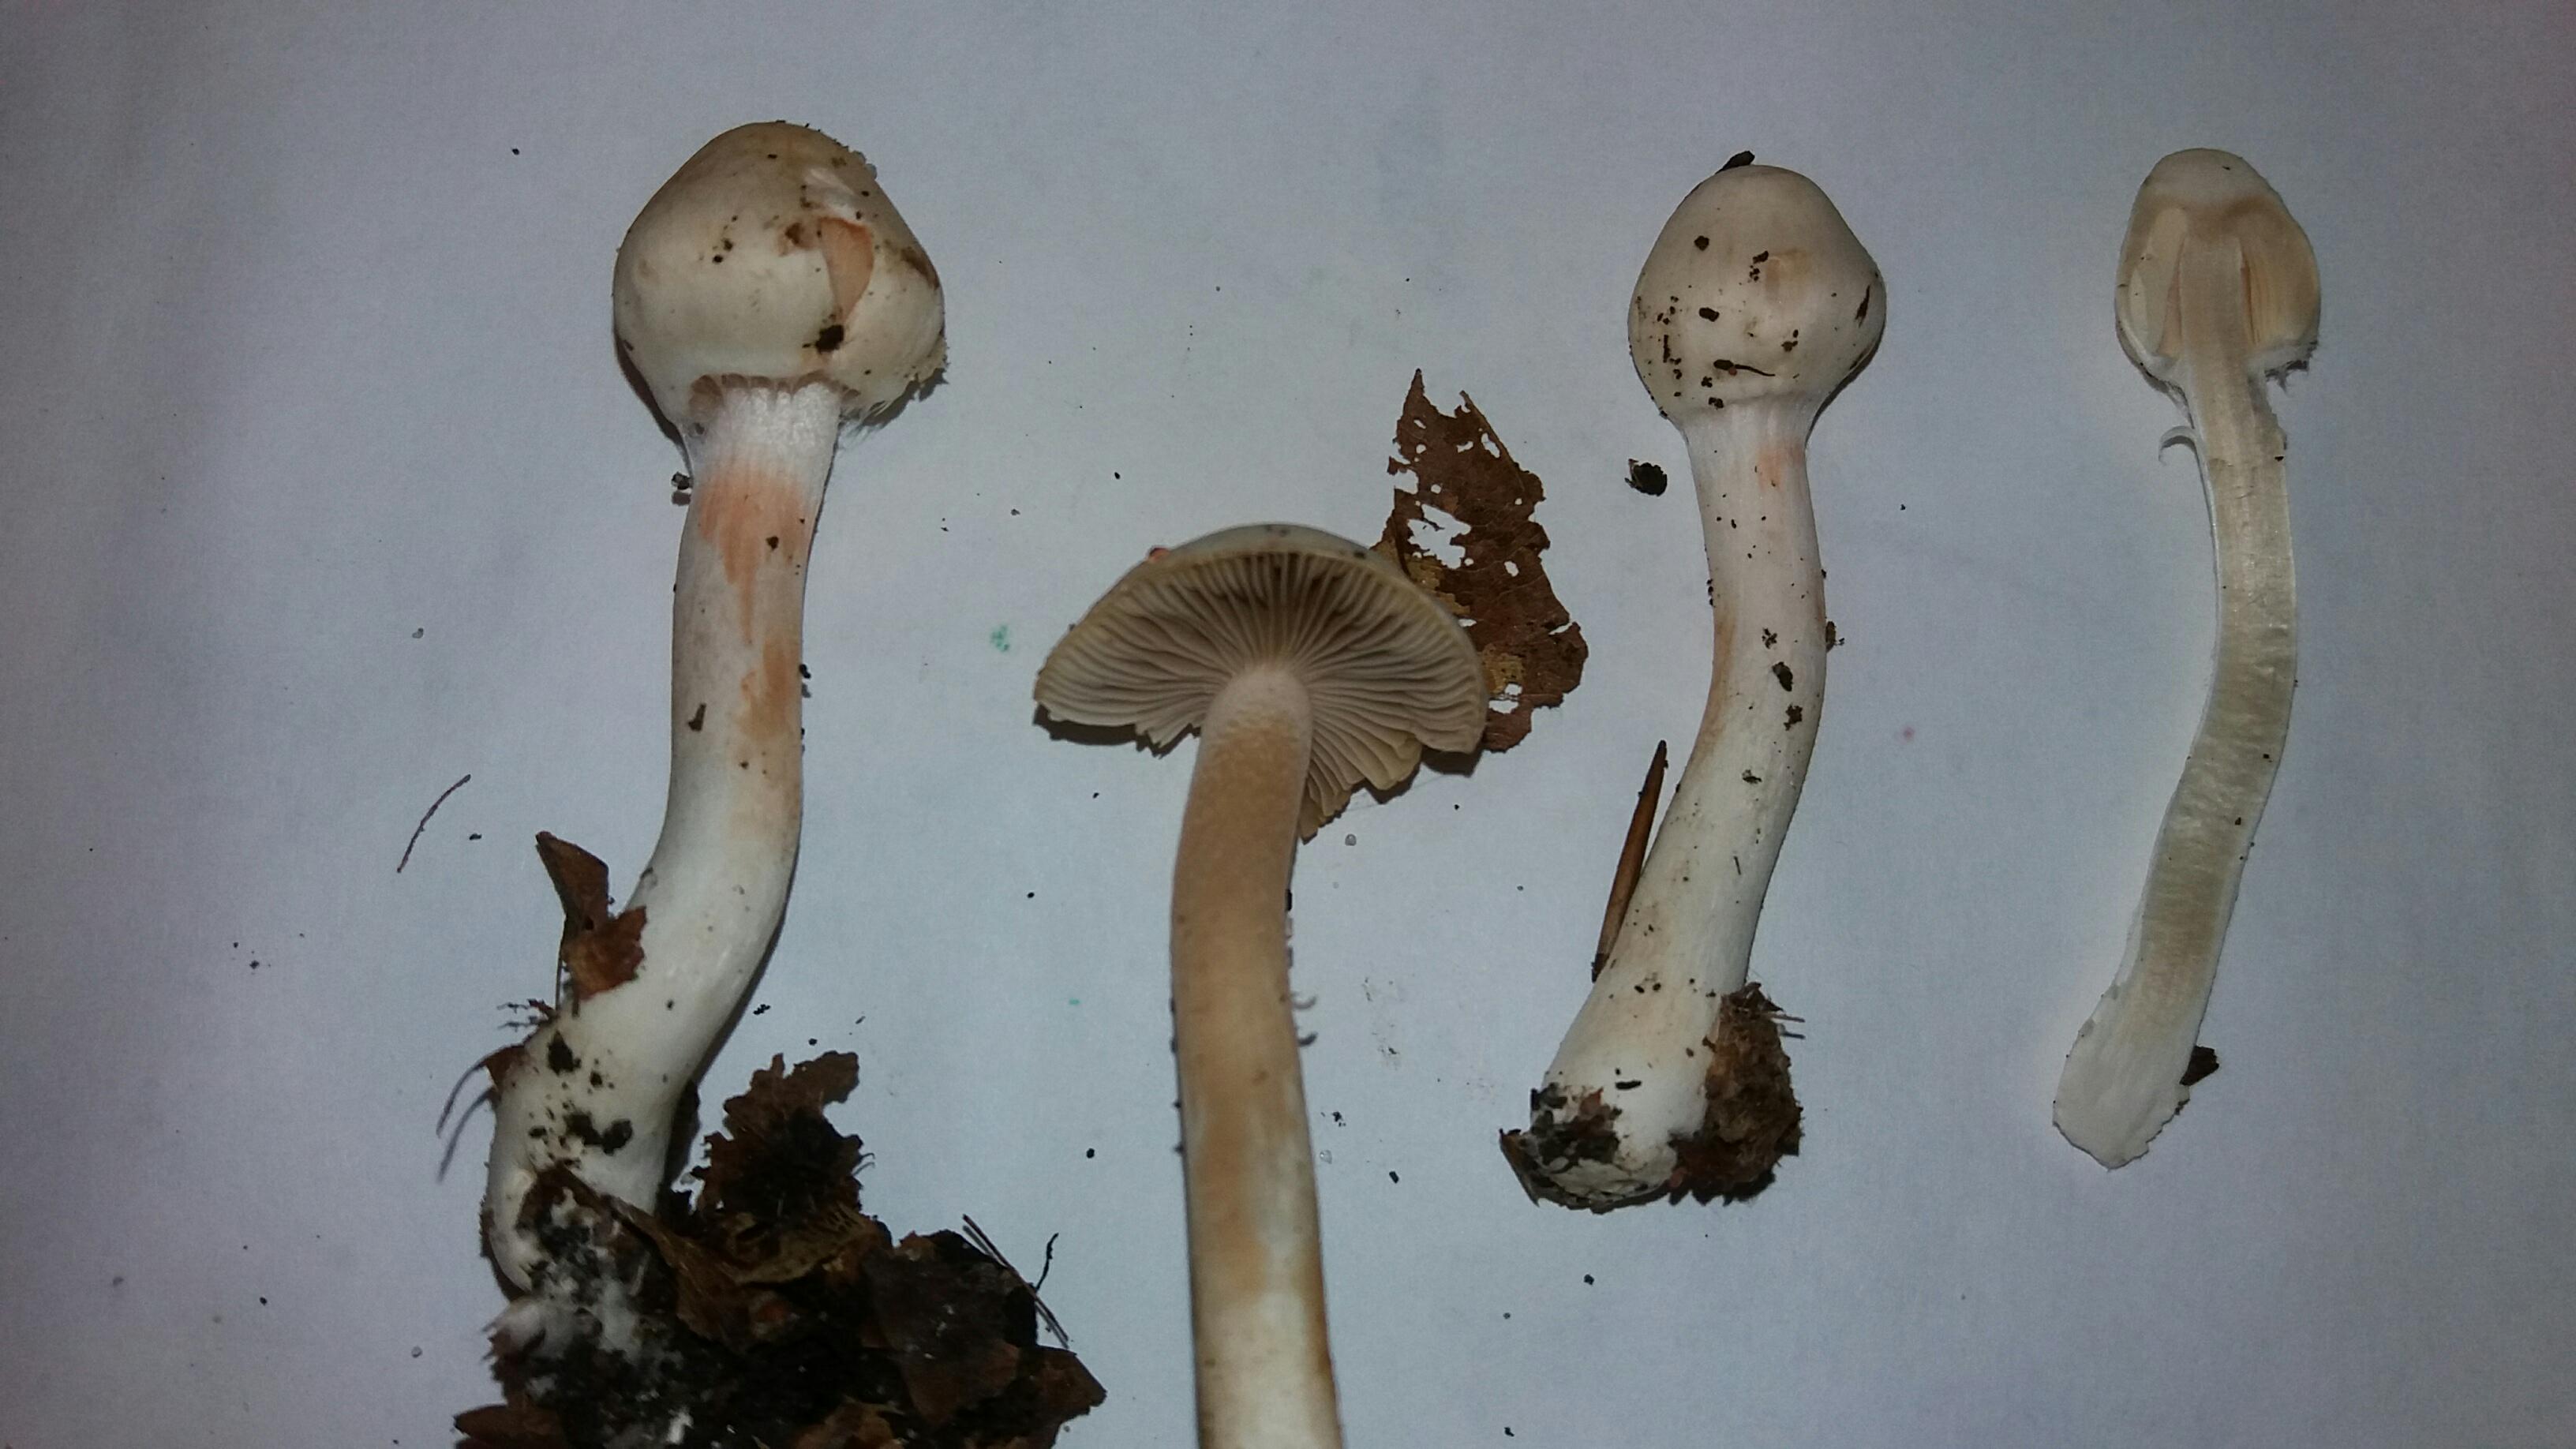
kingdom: Fungi
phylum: Basidiomycota
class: Agaricomycetes
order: Agaricales
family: Inocybaceae
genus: Inocybe
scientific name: Inocybe
